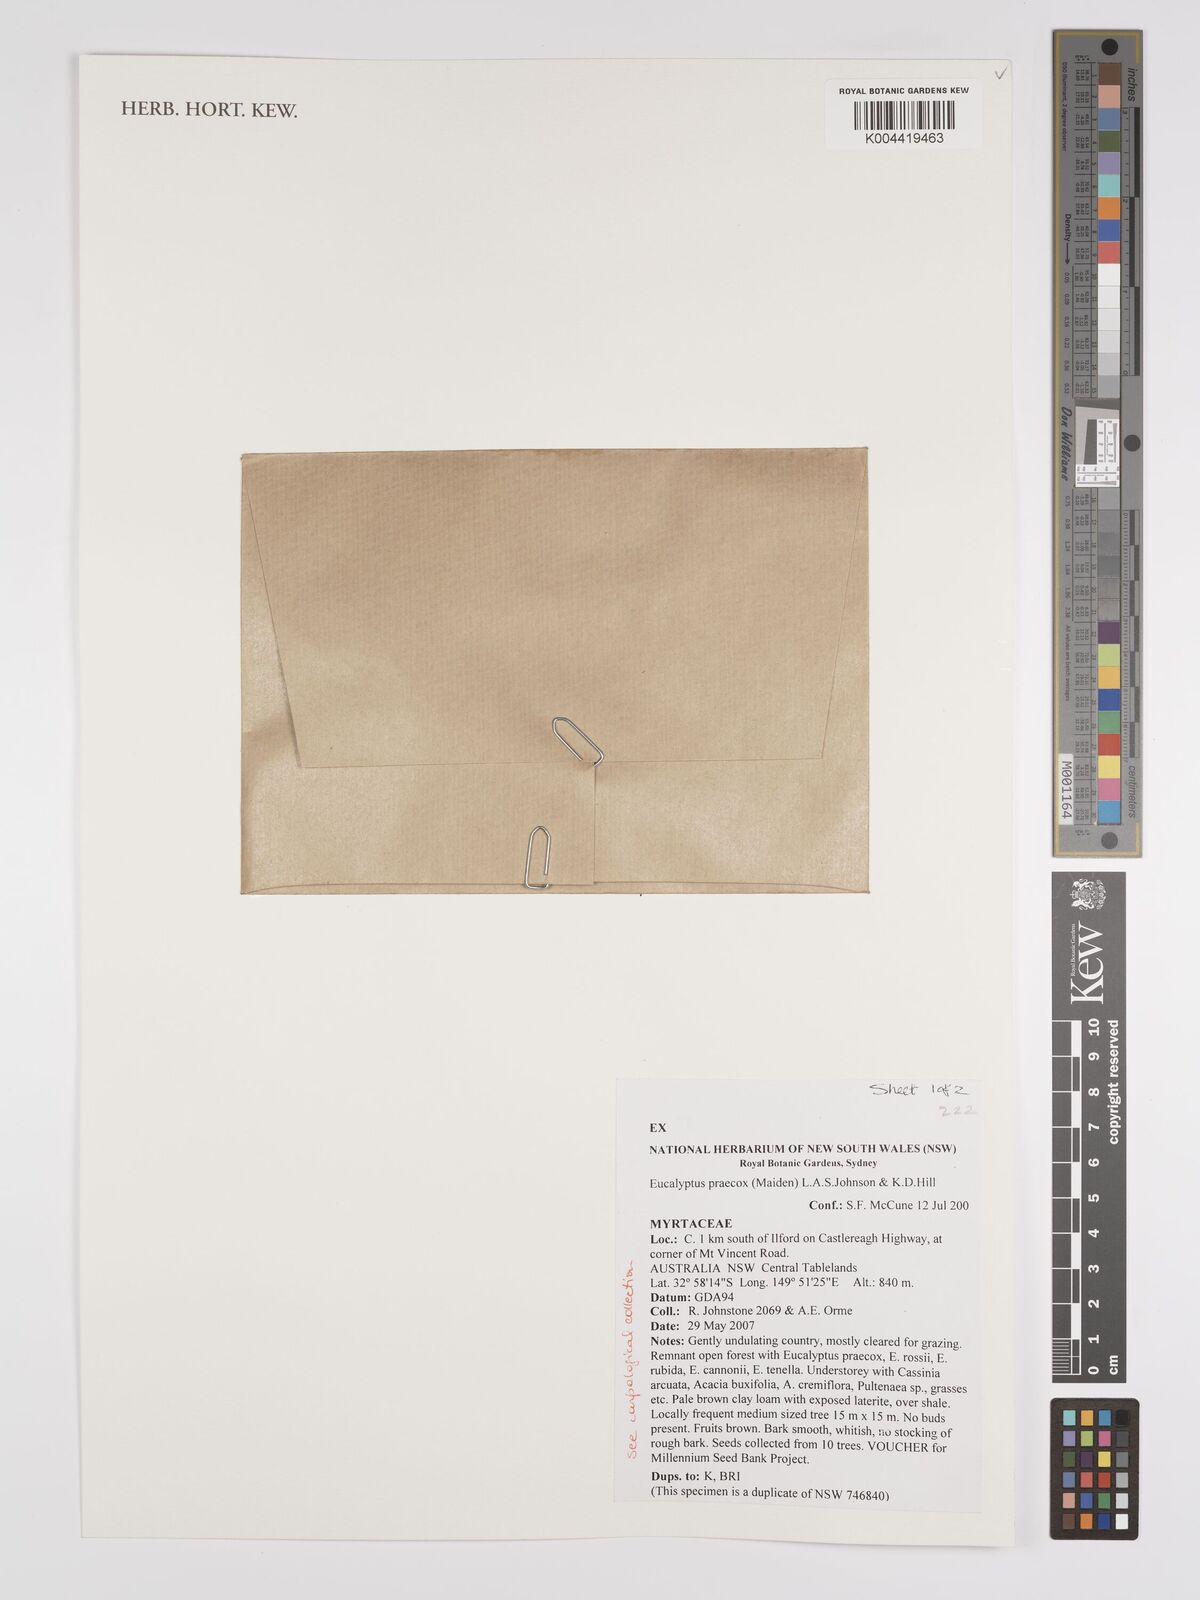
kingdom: Plantae
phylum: Tracheophyta
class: Magnoliopsida
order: Myrtales
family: Myrtaceae
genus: Eucalyptus
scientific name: Eucalyptus mannifera
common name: Manna gum
